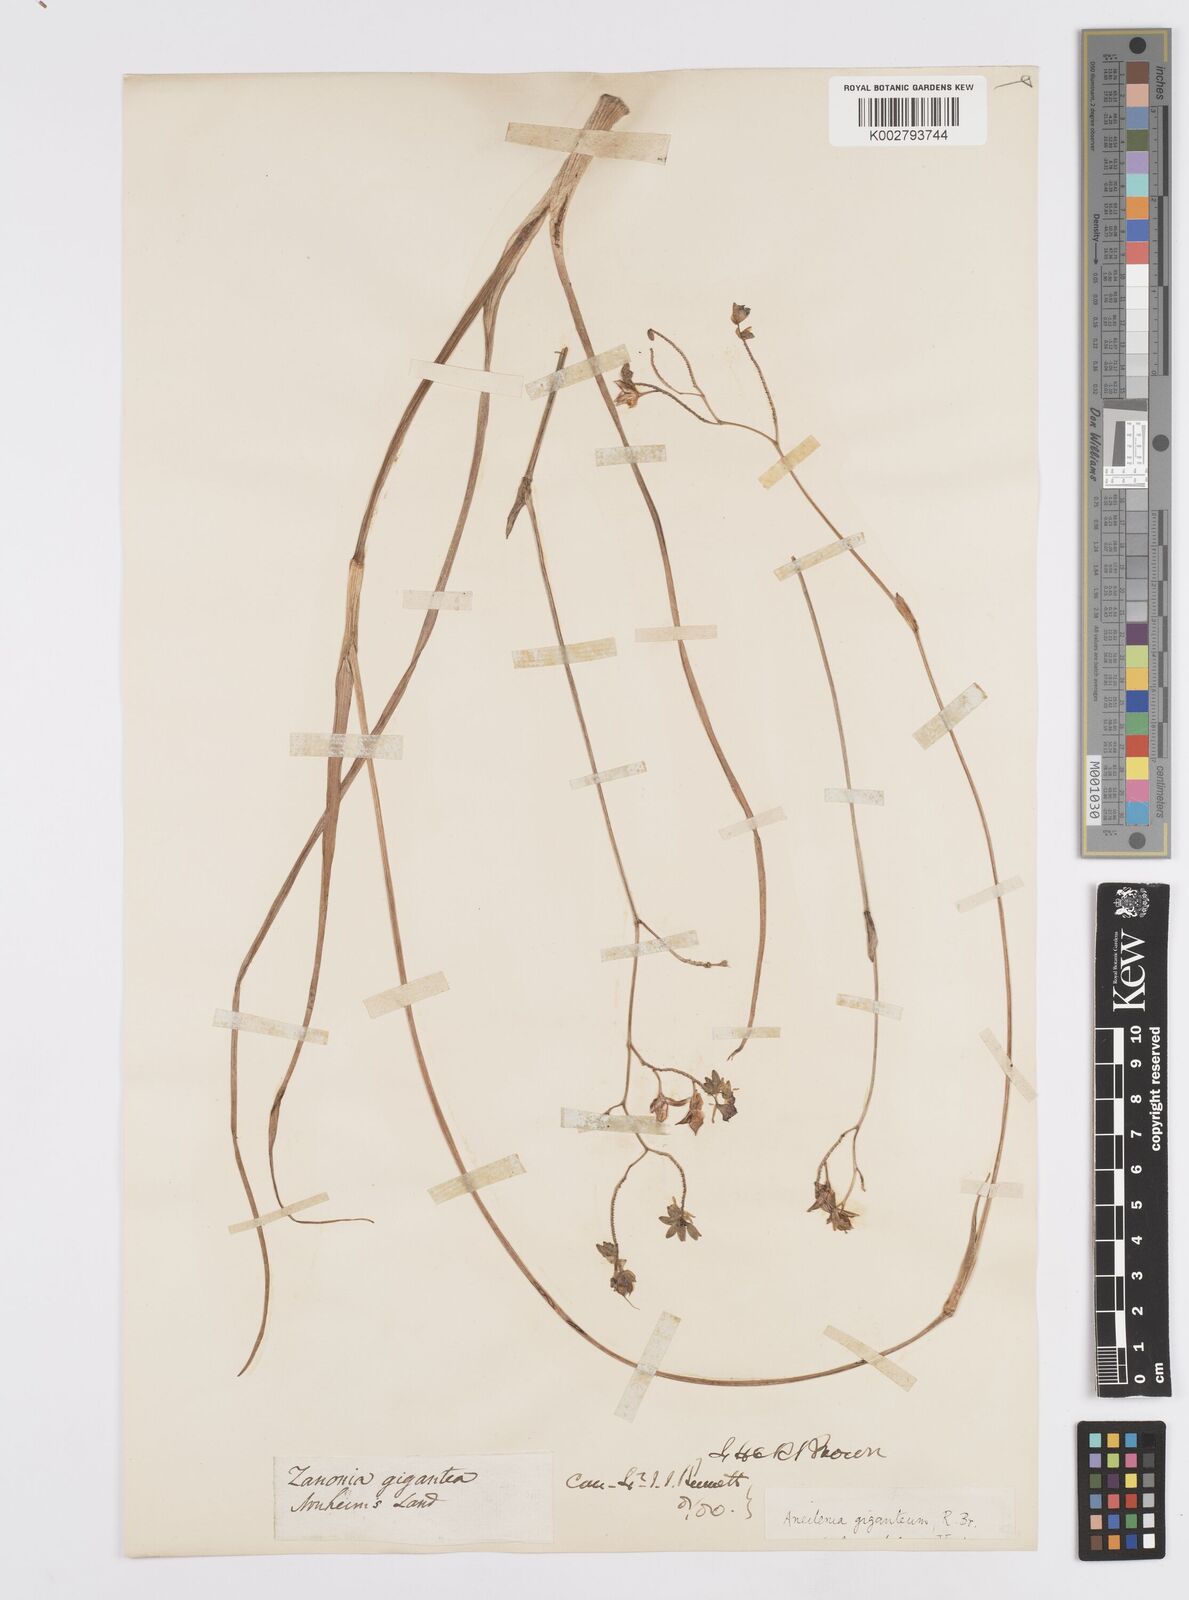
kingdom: Plantae
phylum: Tracheophyta
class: Liliopsida
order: Commelinales
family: Commelinaceae
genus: Murdannia
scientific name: Murdannia gigantea
